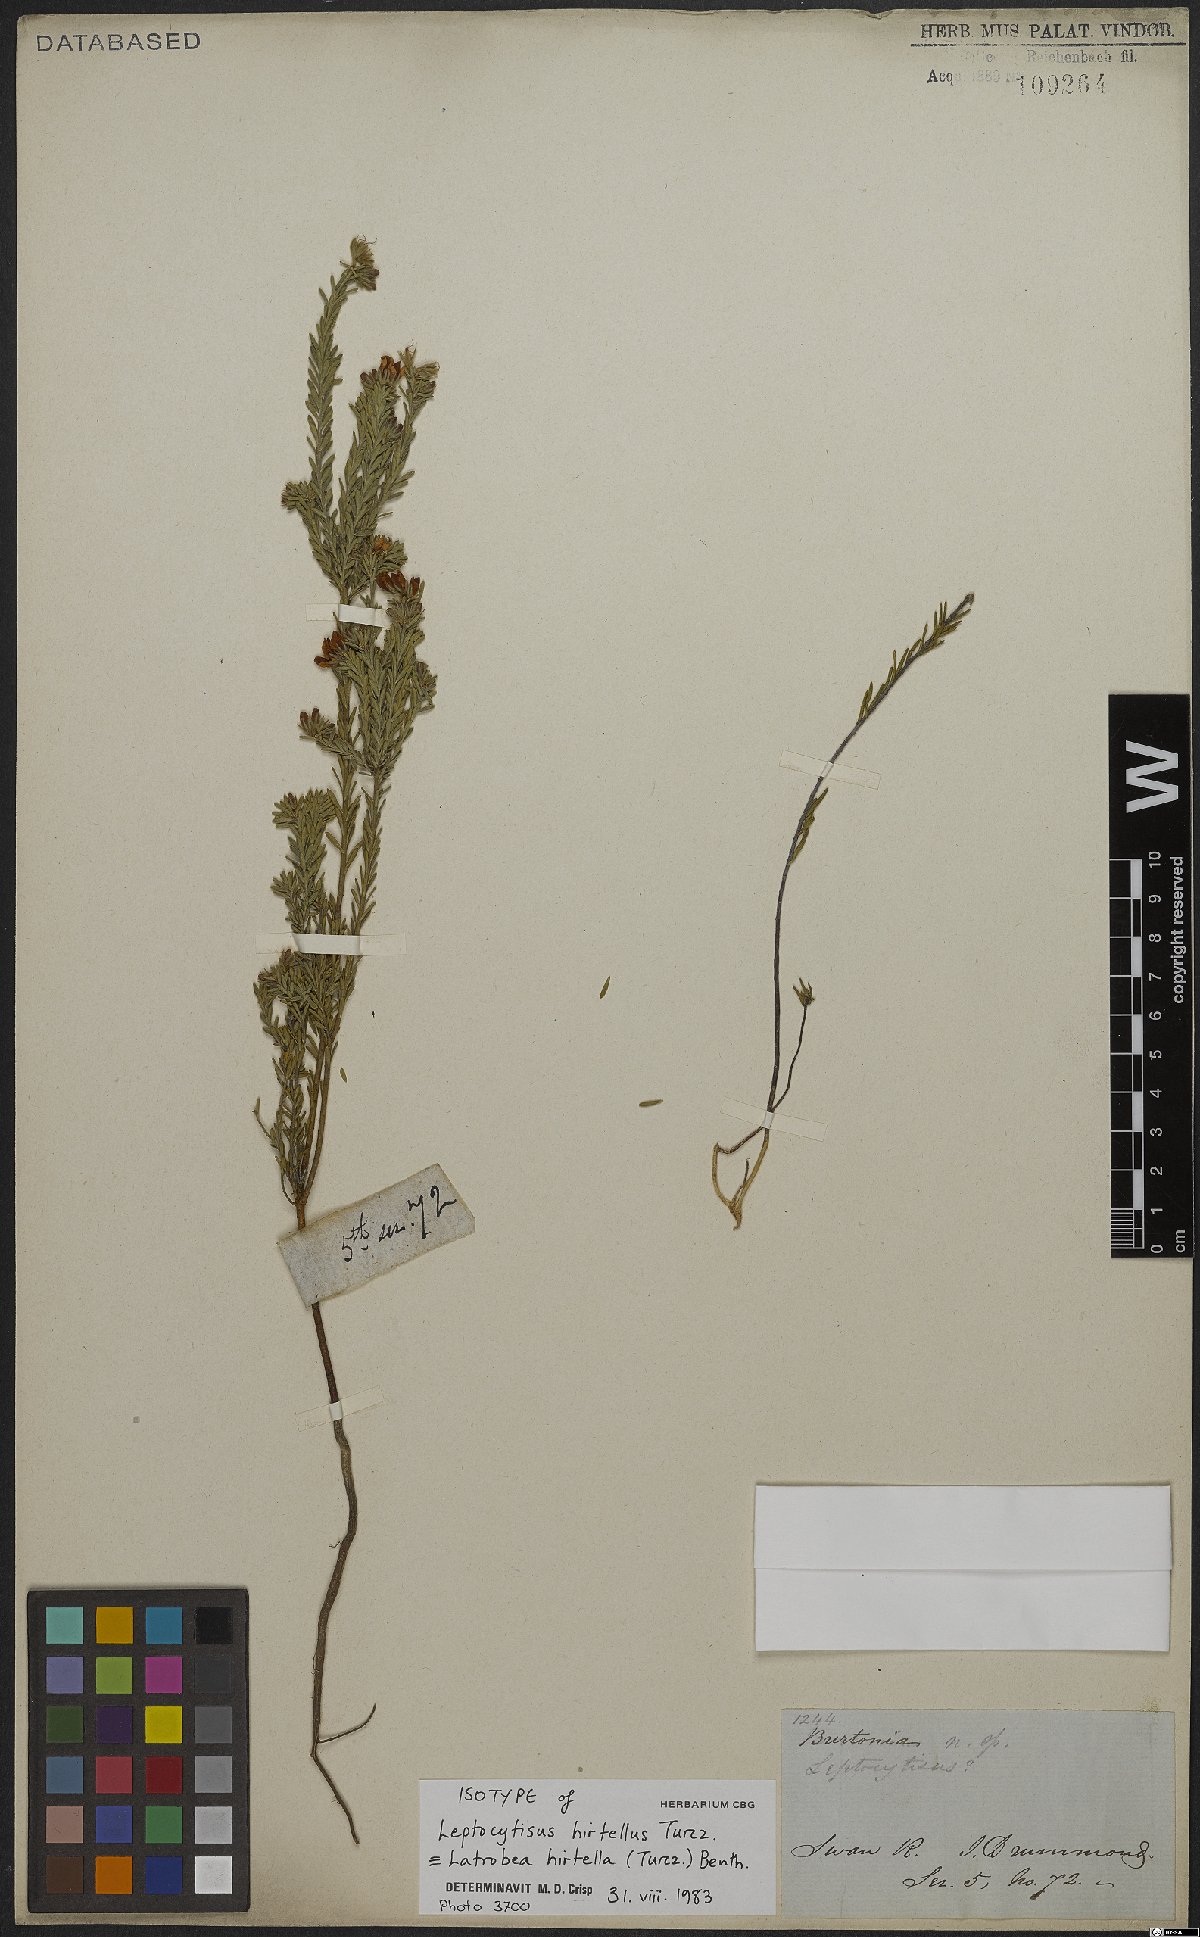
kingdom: Plantae
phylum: Tracheophyta
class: Magnoliopsida
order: Fabales
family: Fabaceae
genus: Latrobea
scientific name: Latrobea hirtella
